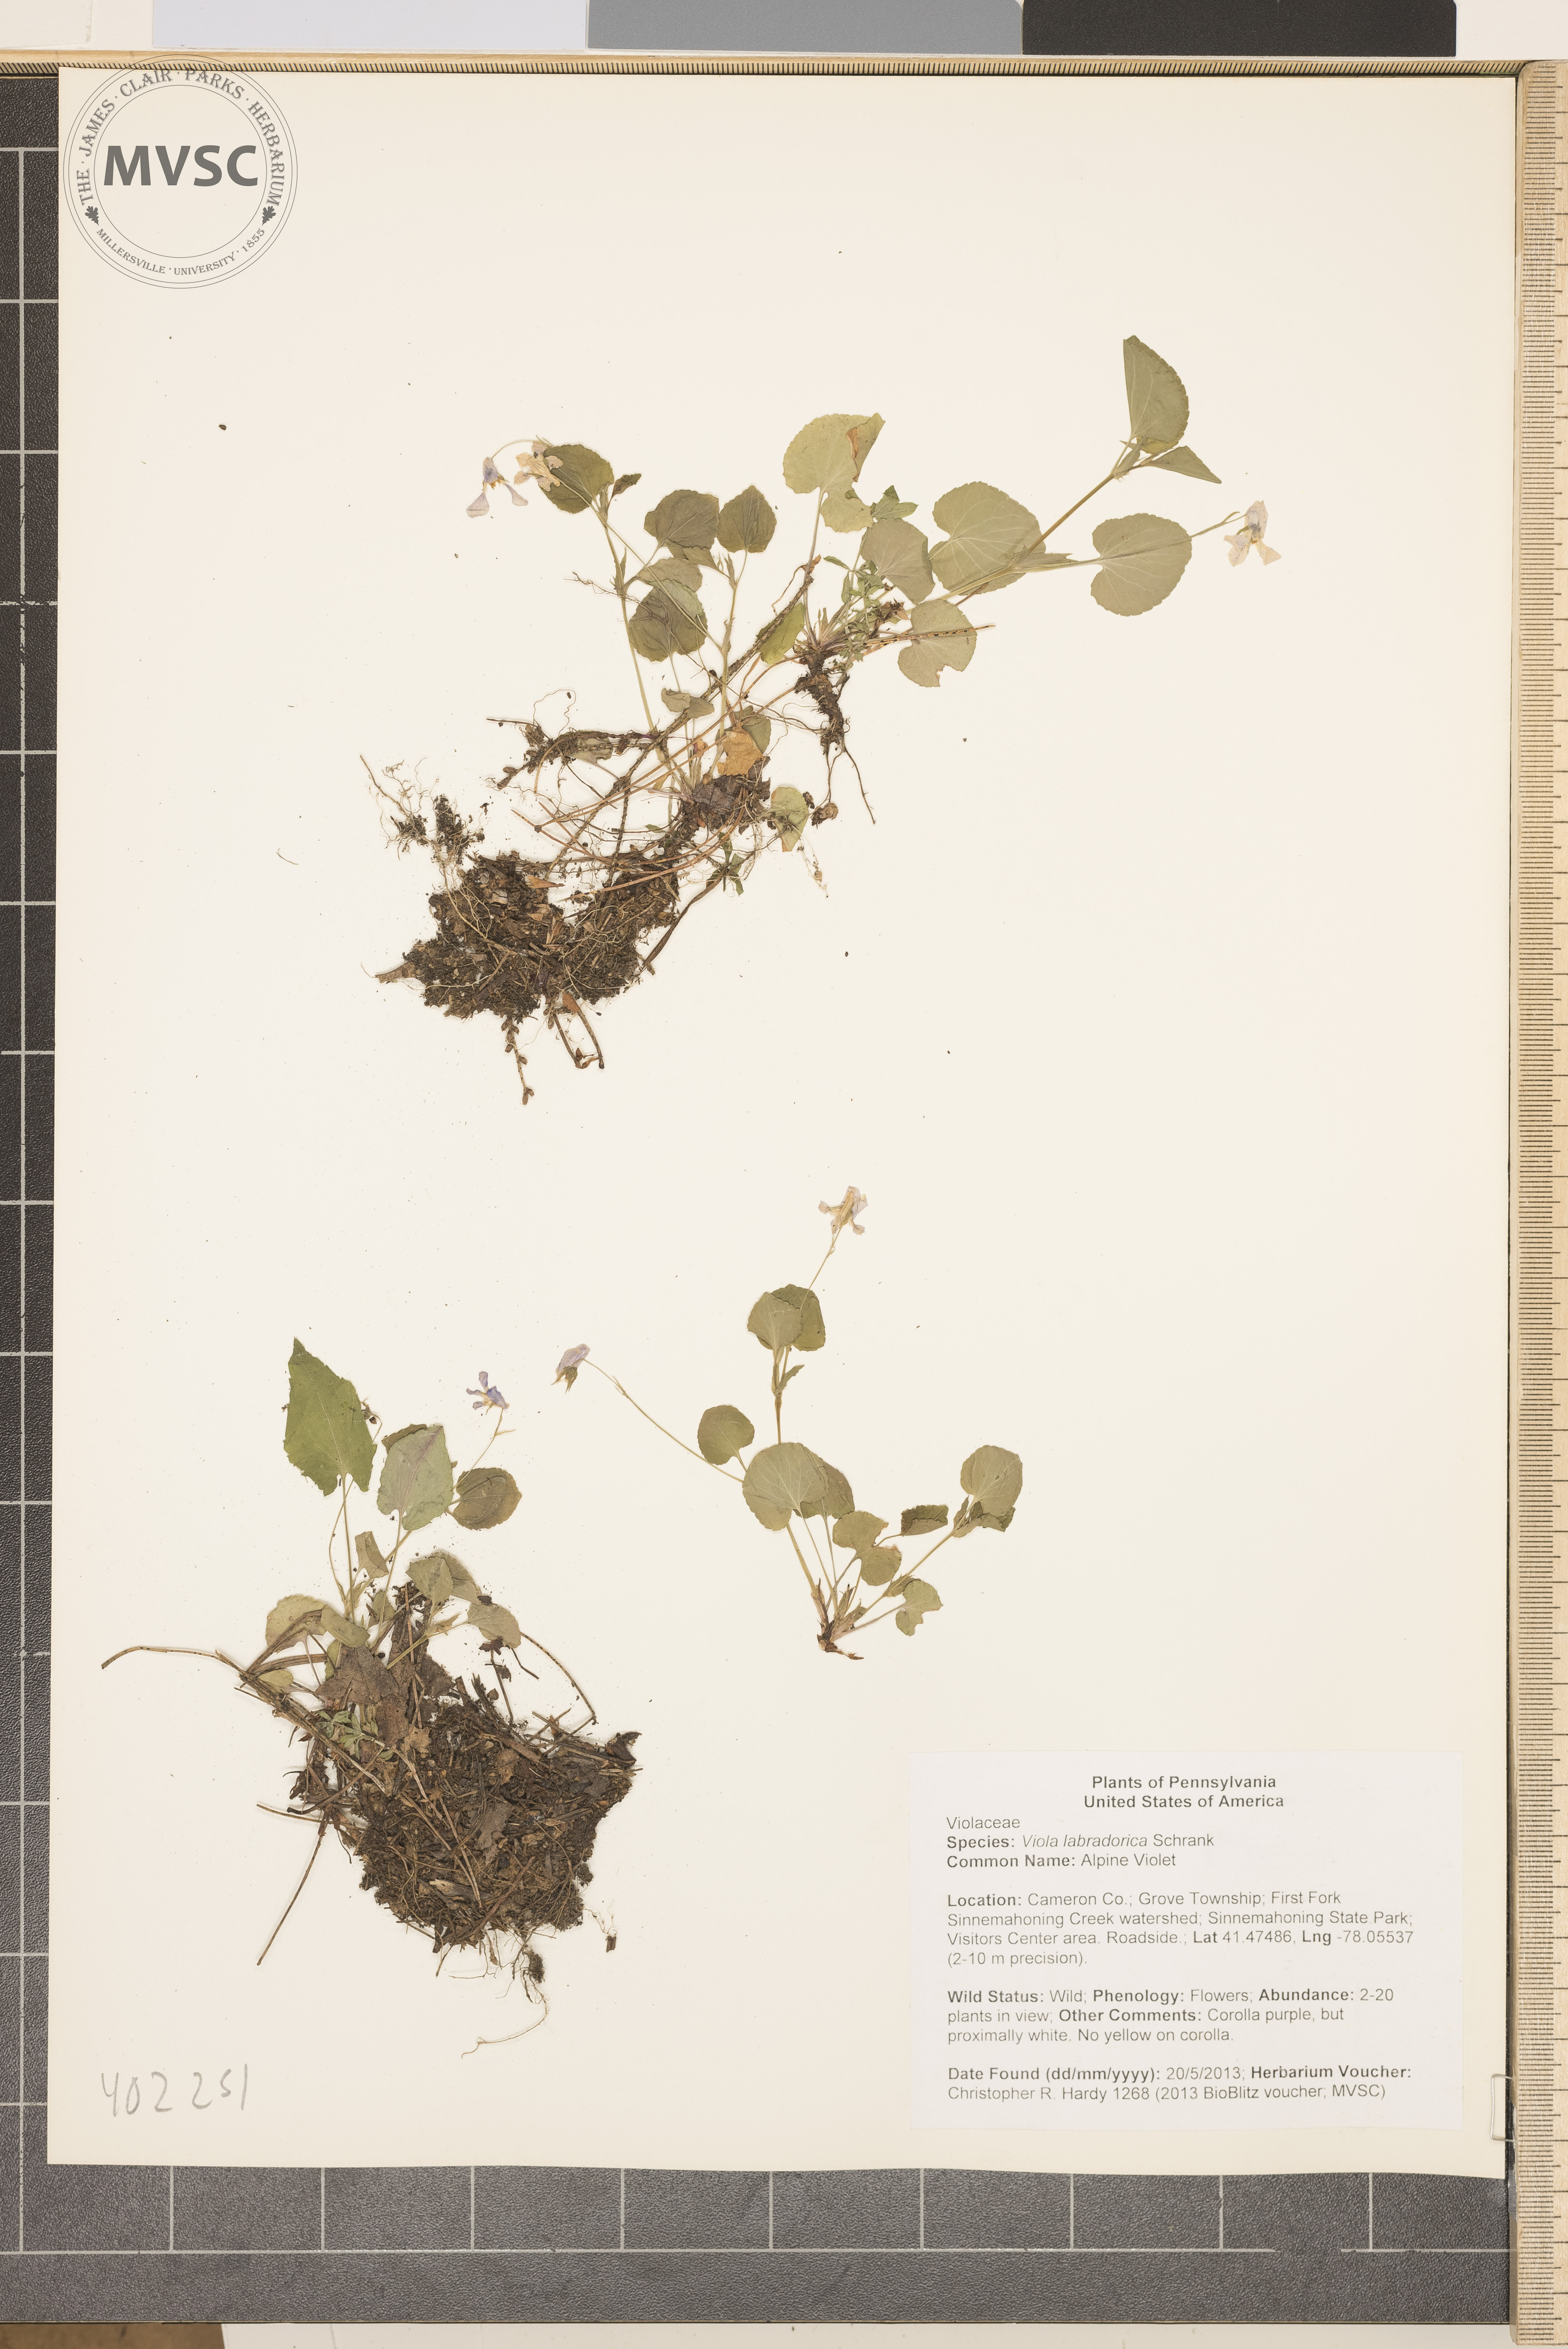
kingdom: Plantae
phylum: Tracheophyta
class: Magnoliopsida
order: Malpighiales
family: Violaceae
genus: Viola
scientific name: Viola labradorica
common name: Alpine Violet
